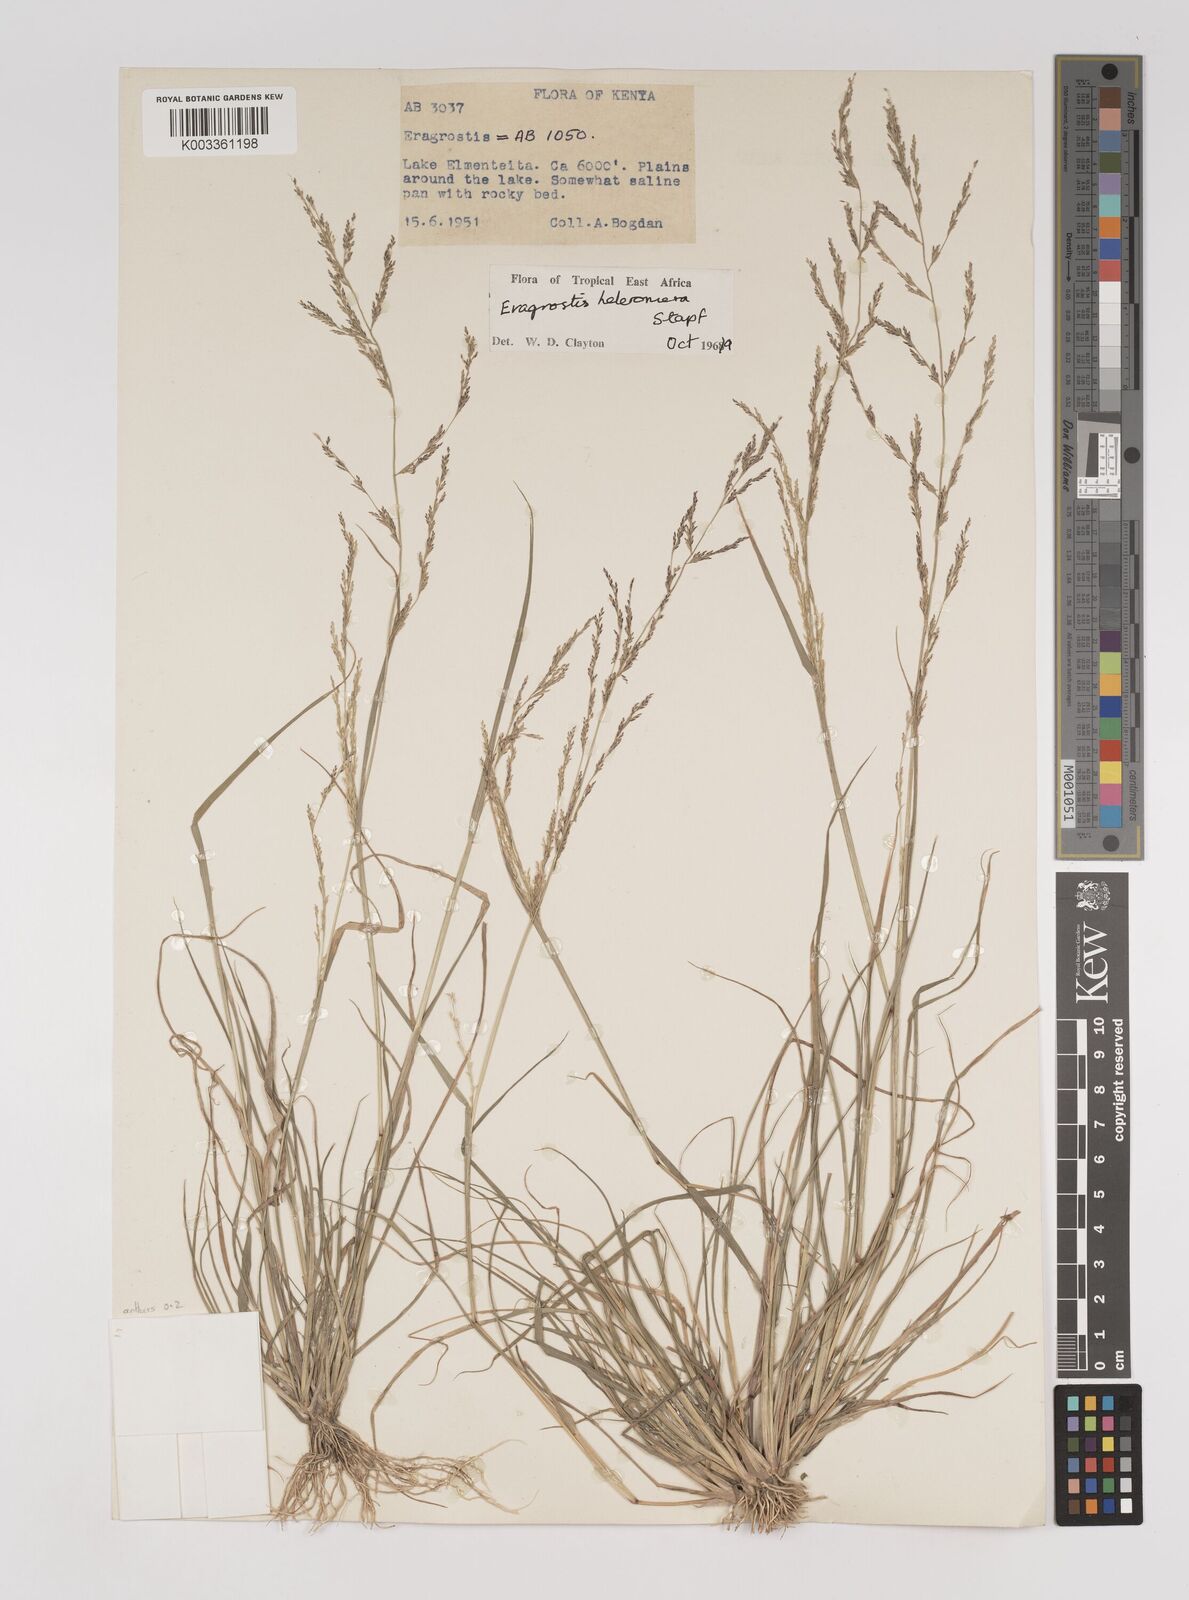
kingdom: Plantae
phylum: Tracheophyta
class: Liliopsida
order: Poales
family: Poaceae
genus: Eragrostis
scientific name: Eragrostis heteromera
